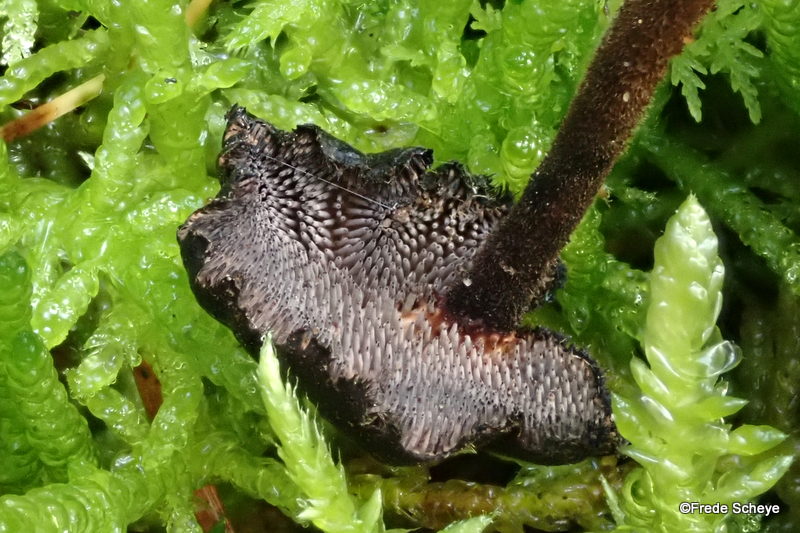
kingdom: Fungi
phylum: Basidiomycota
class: Agaricomycetes
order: Russulales
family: Auriscalpiaceae
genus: Auriscalpium
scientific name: Auriscalpium vulgare
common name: koglepigsvamp
